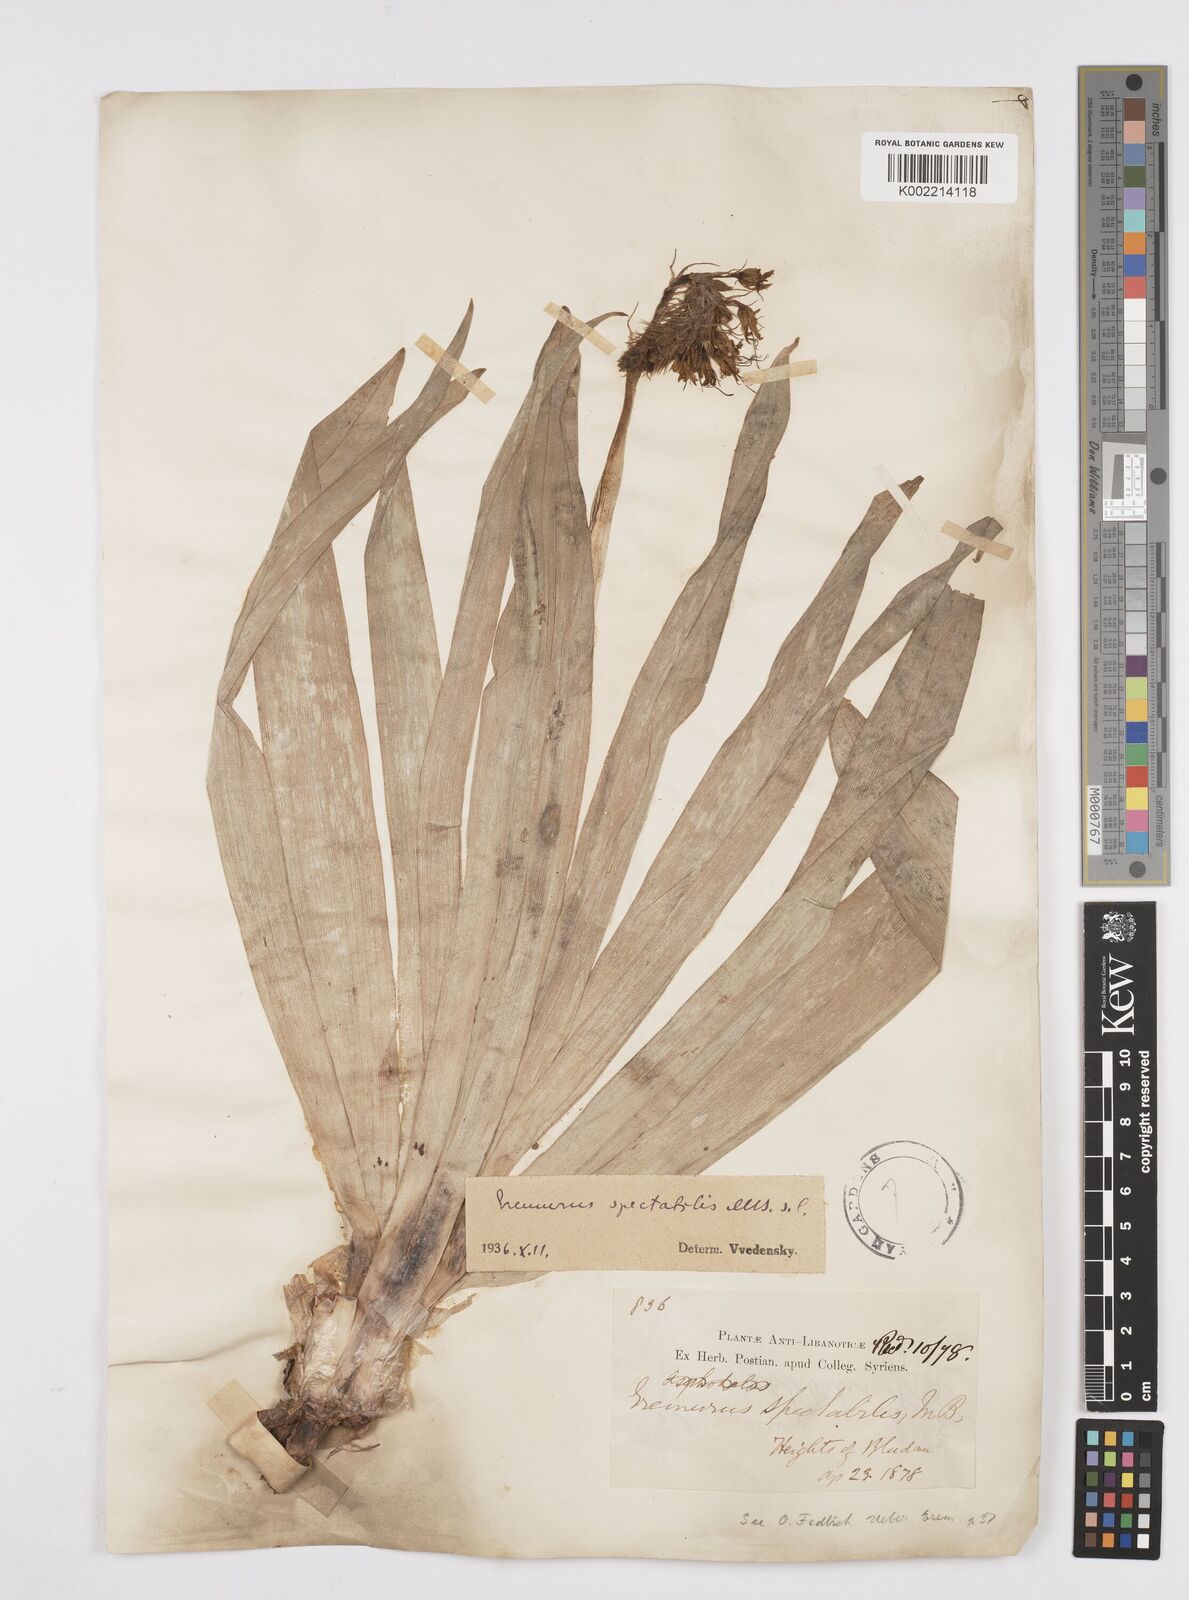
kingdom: Plantae
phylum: Tracheophyta
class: Liliopsida
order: Asparagales
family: Asphodelaceae
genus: Eremurus
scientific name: Eremurus spectabilis
